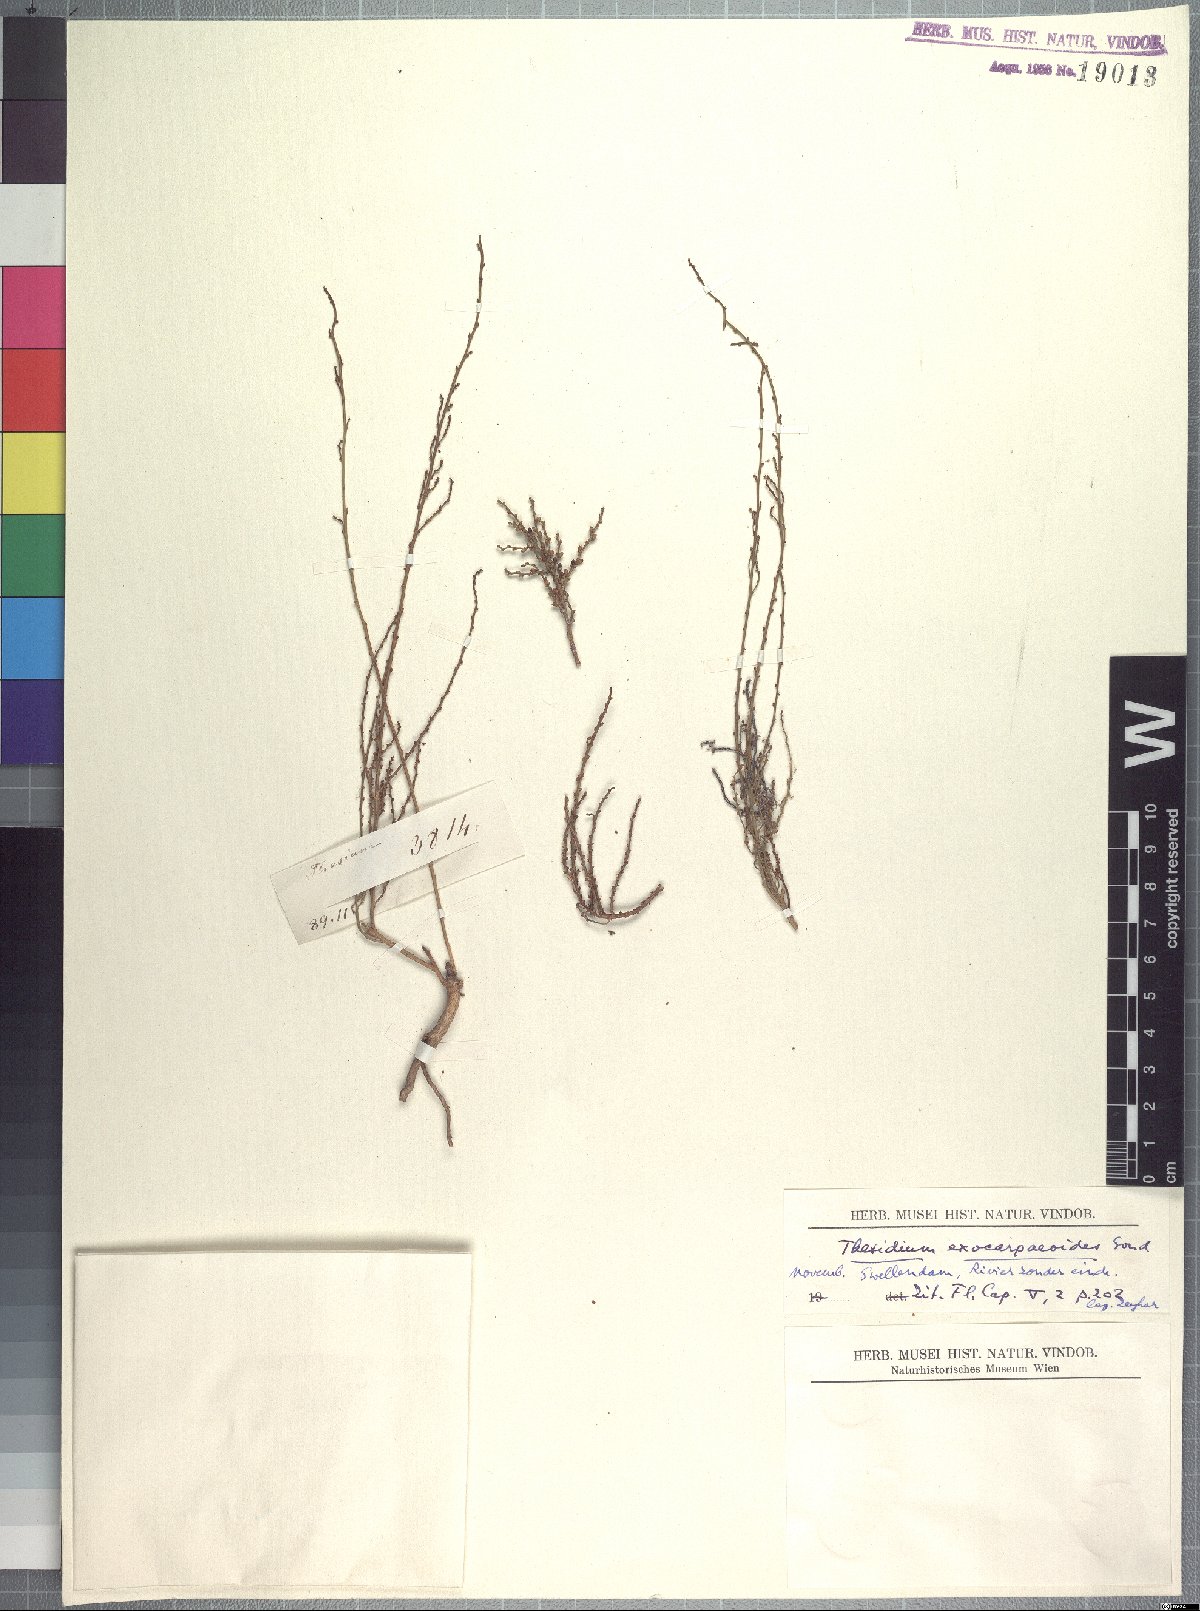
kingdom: Plantae
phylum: Tracheophyta
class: Magnoliopsida
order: Santalales
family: Thesiaceae
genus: Thesium
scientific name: Thesium confusum
